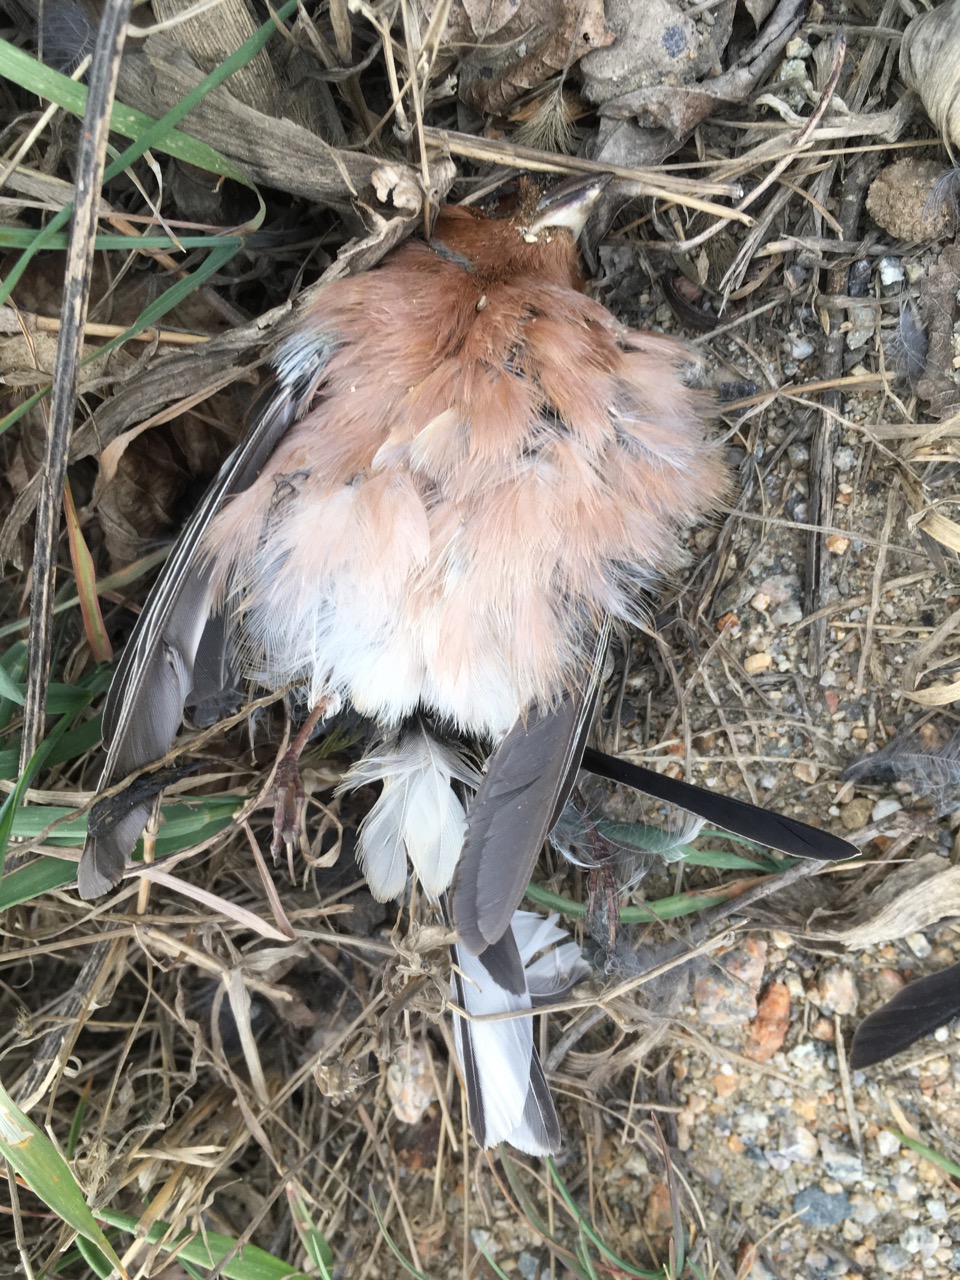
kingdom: Animalia
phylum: Chordata
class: Aves
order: Passeriformes
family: Fringillidae
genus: Fringilla
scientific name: Fringilla coelebs
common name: Common chaffinch
